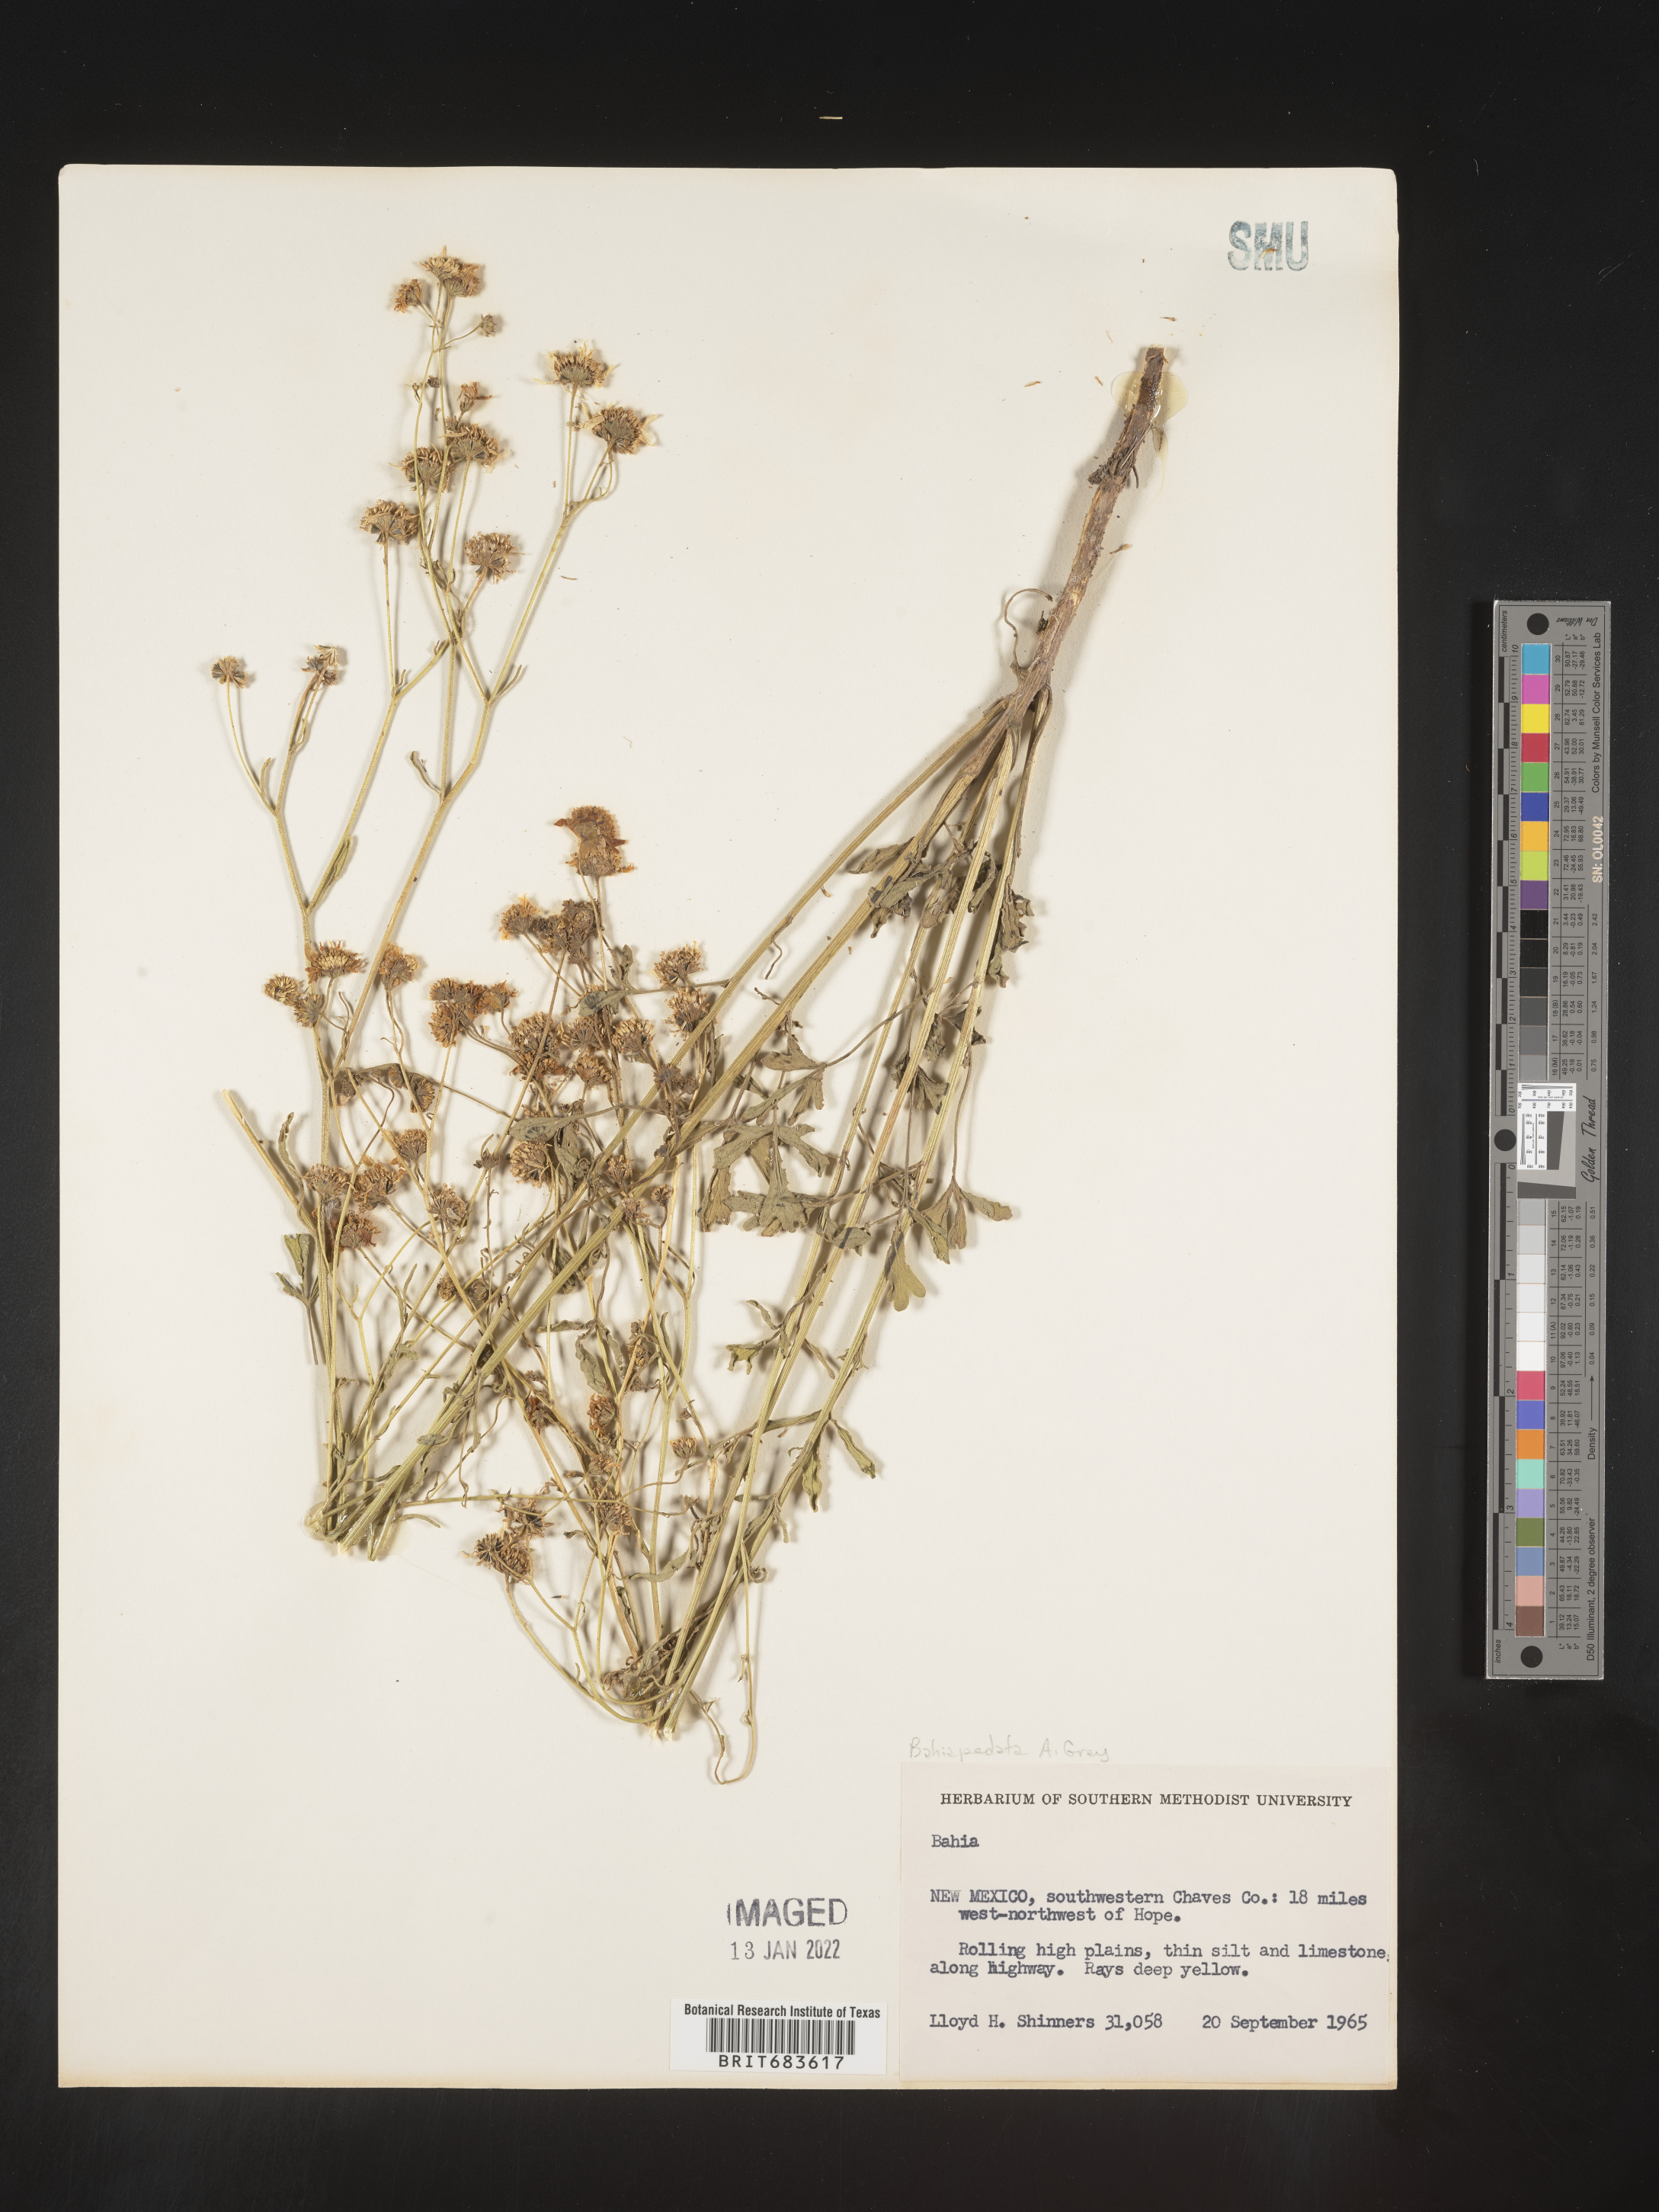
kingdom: Plantae
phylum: Tracheophyta
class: Magnoliopsida
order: Asterales
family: Asteraceae
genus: Hymenothrix
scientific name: Hymenothrix pedata
